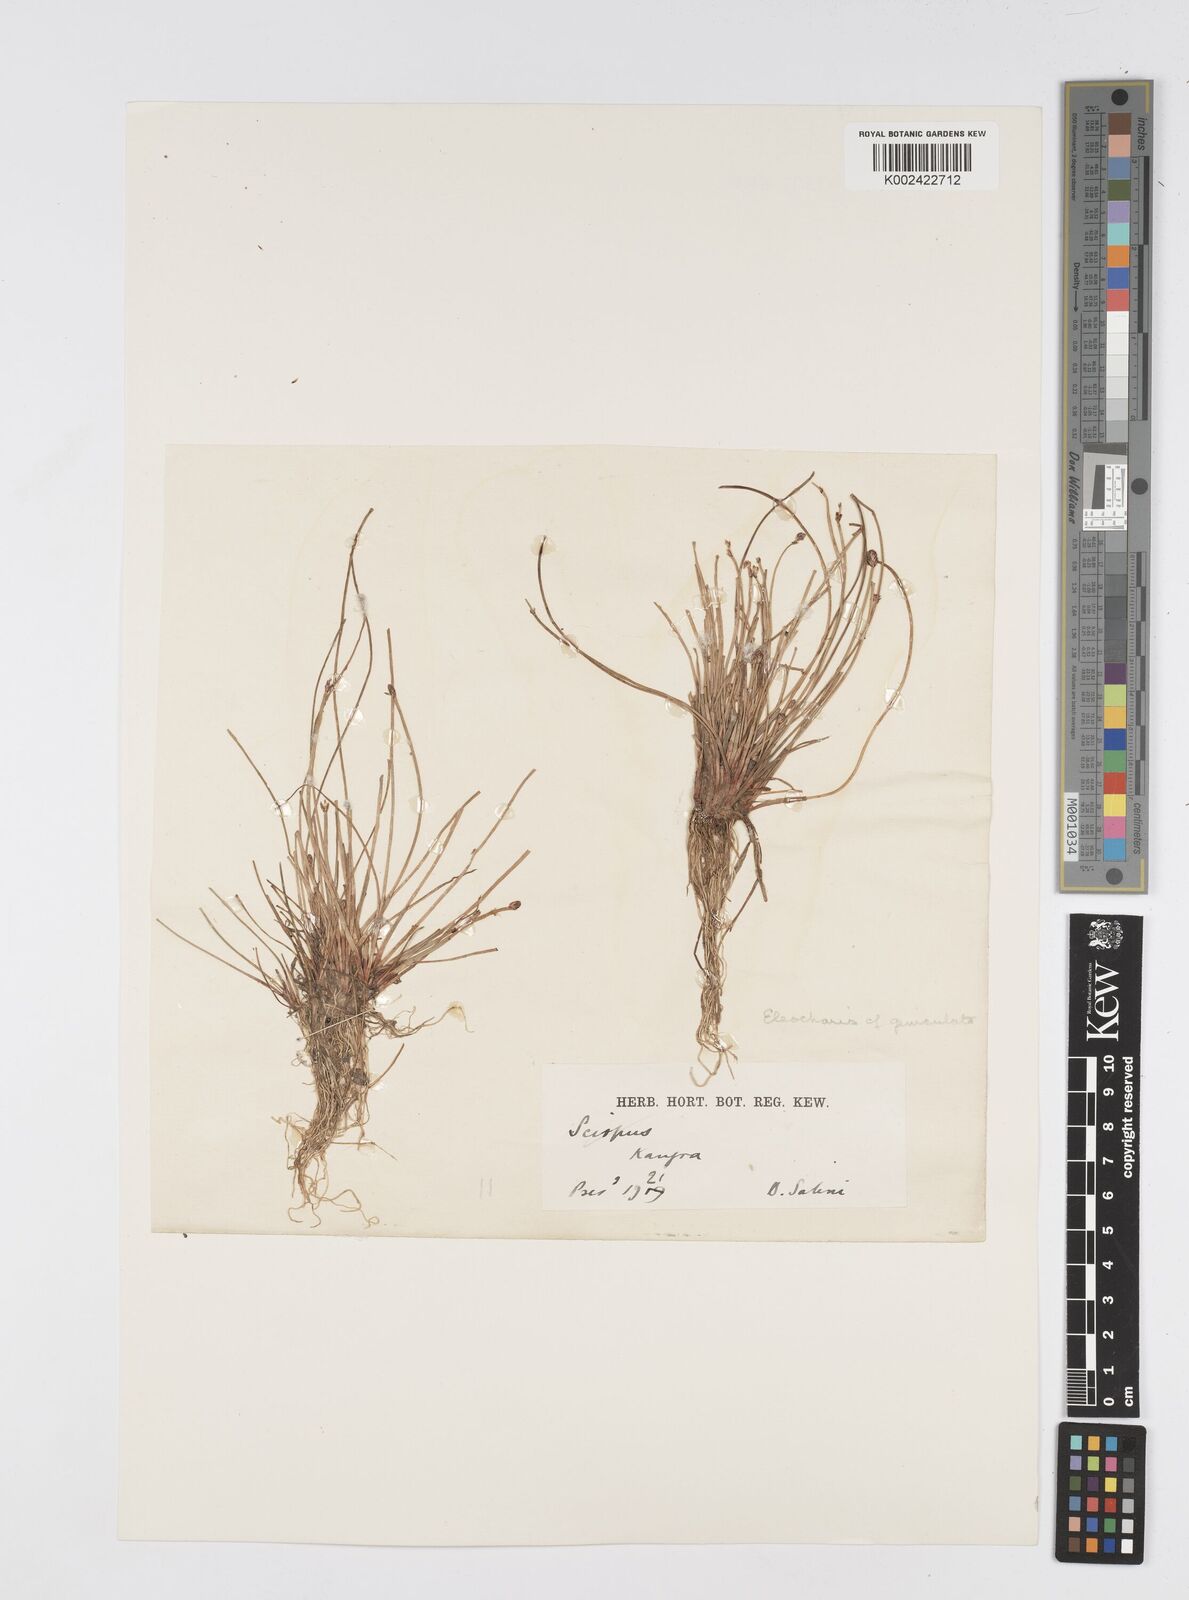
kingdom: Plantae
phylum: Tracheophyta
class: Liliopsida
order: Poales
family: Cyperaceae
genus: Eleocharis
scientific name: Eleocharis
